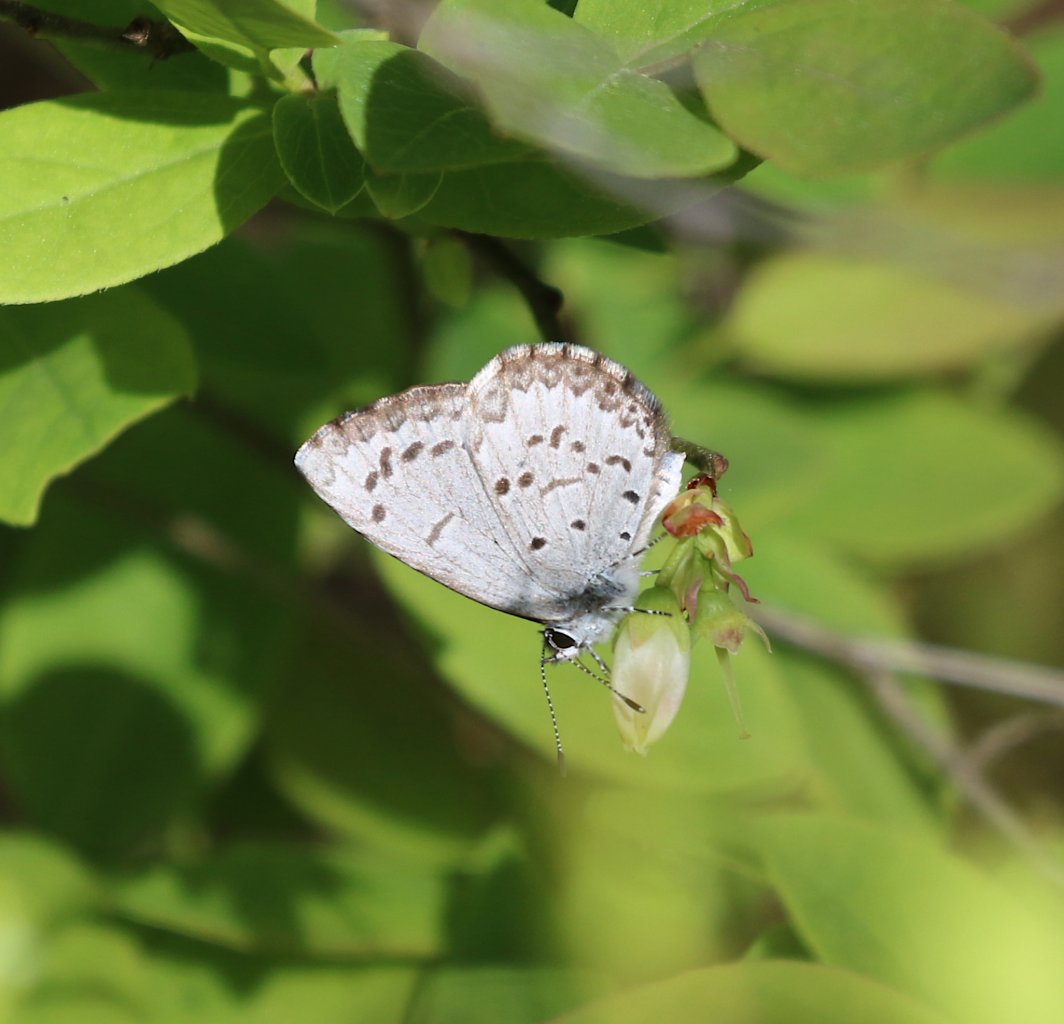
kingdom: Animalia
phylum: Arthropoda
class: Insecta
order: Lepidoptera
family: Lycaenidae
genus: Celastrina
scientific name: Celastrina ladon
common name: Spring Azure
